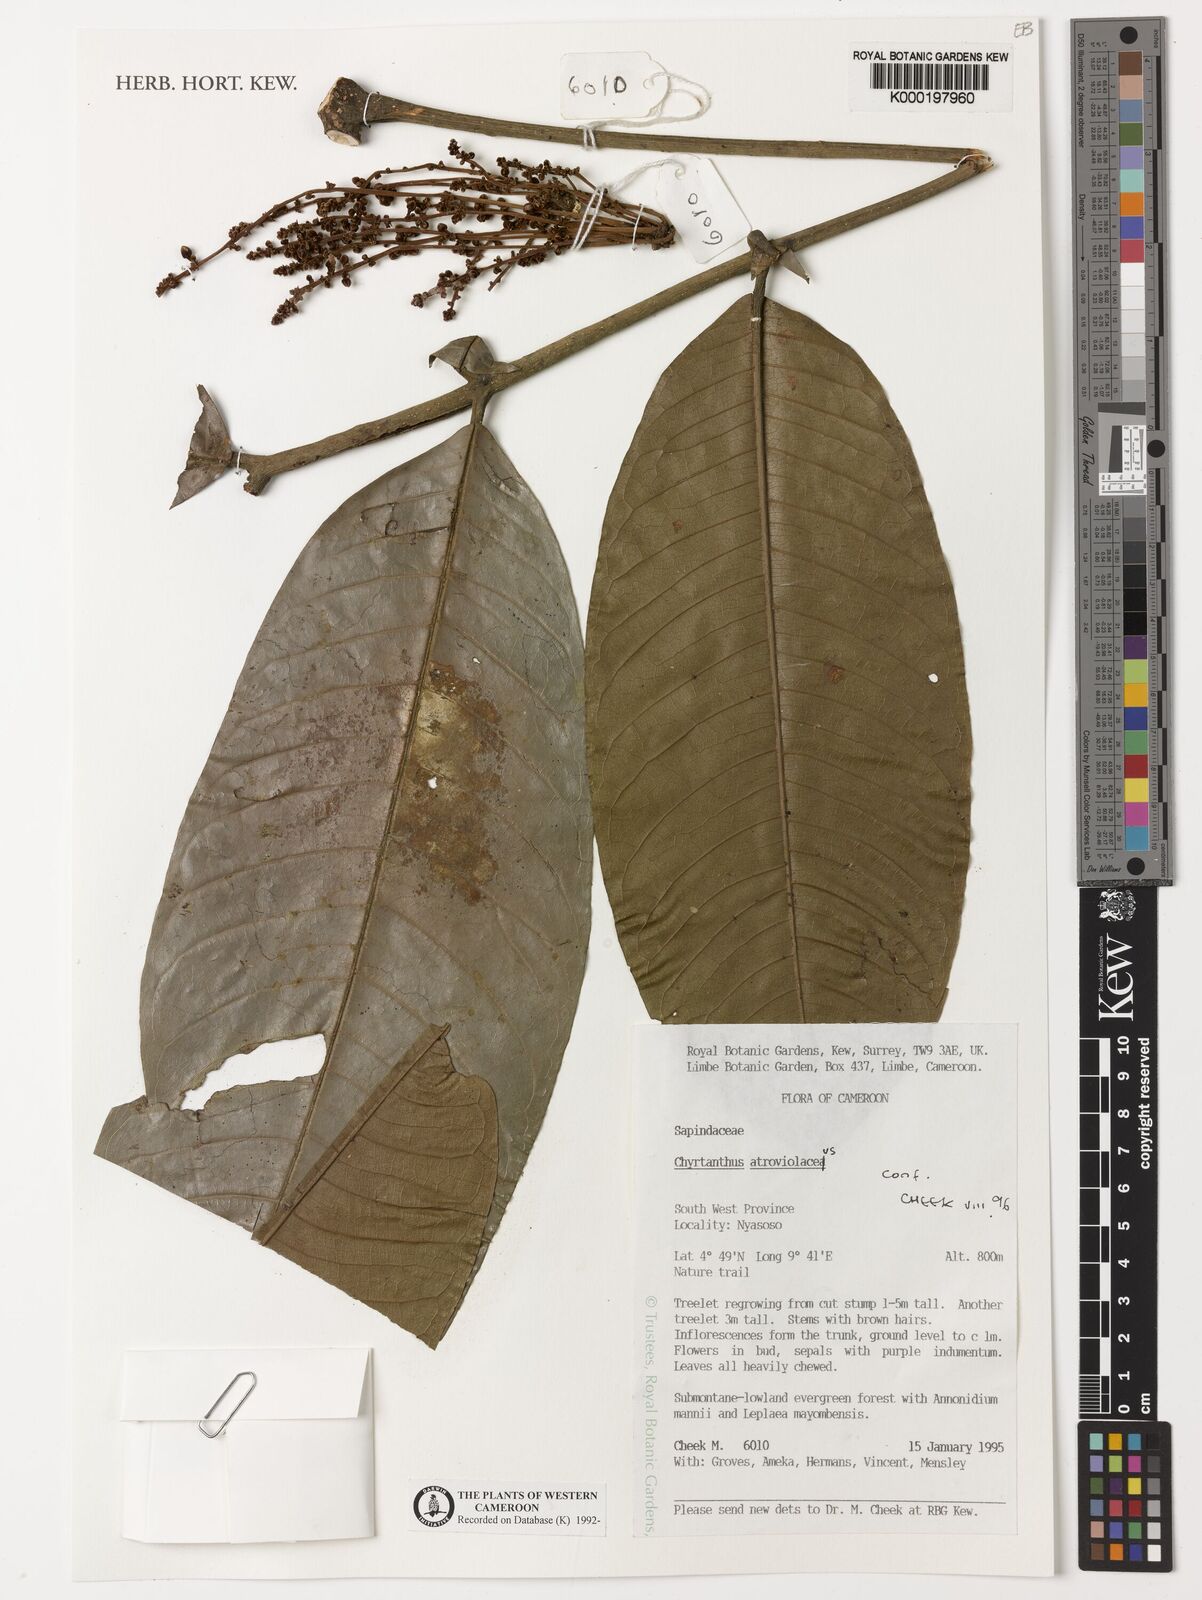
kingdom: Plantae
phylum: Tracheophyta
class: Magnoliopsida
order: Sapindales
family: Sapindaceae
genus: Chytranthus
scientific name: Chytranthus atroviolaceus
